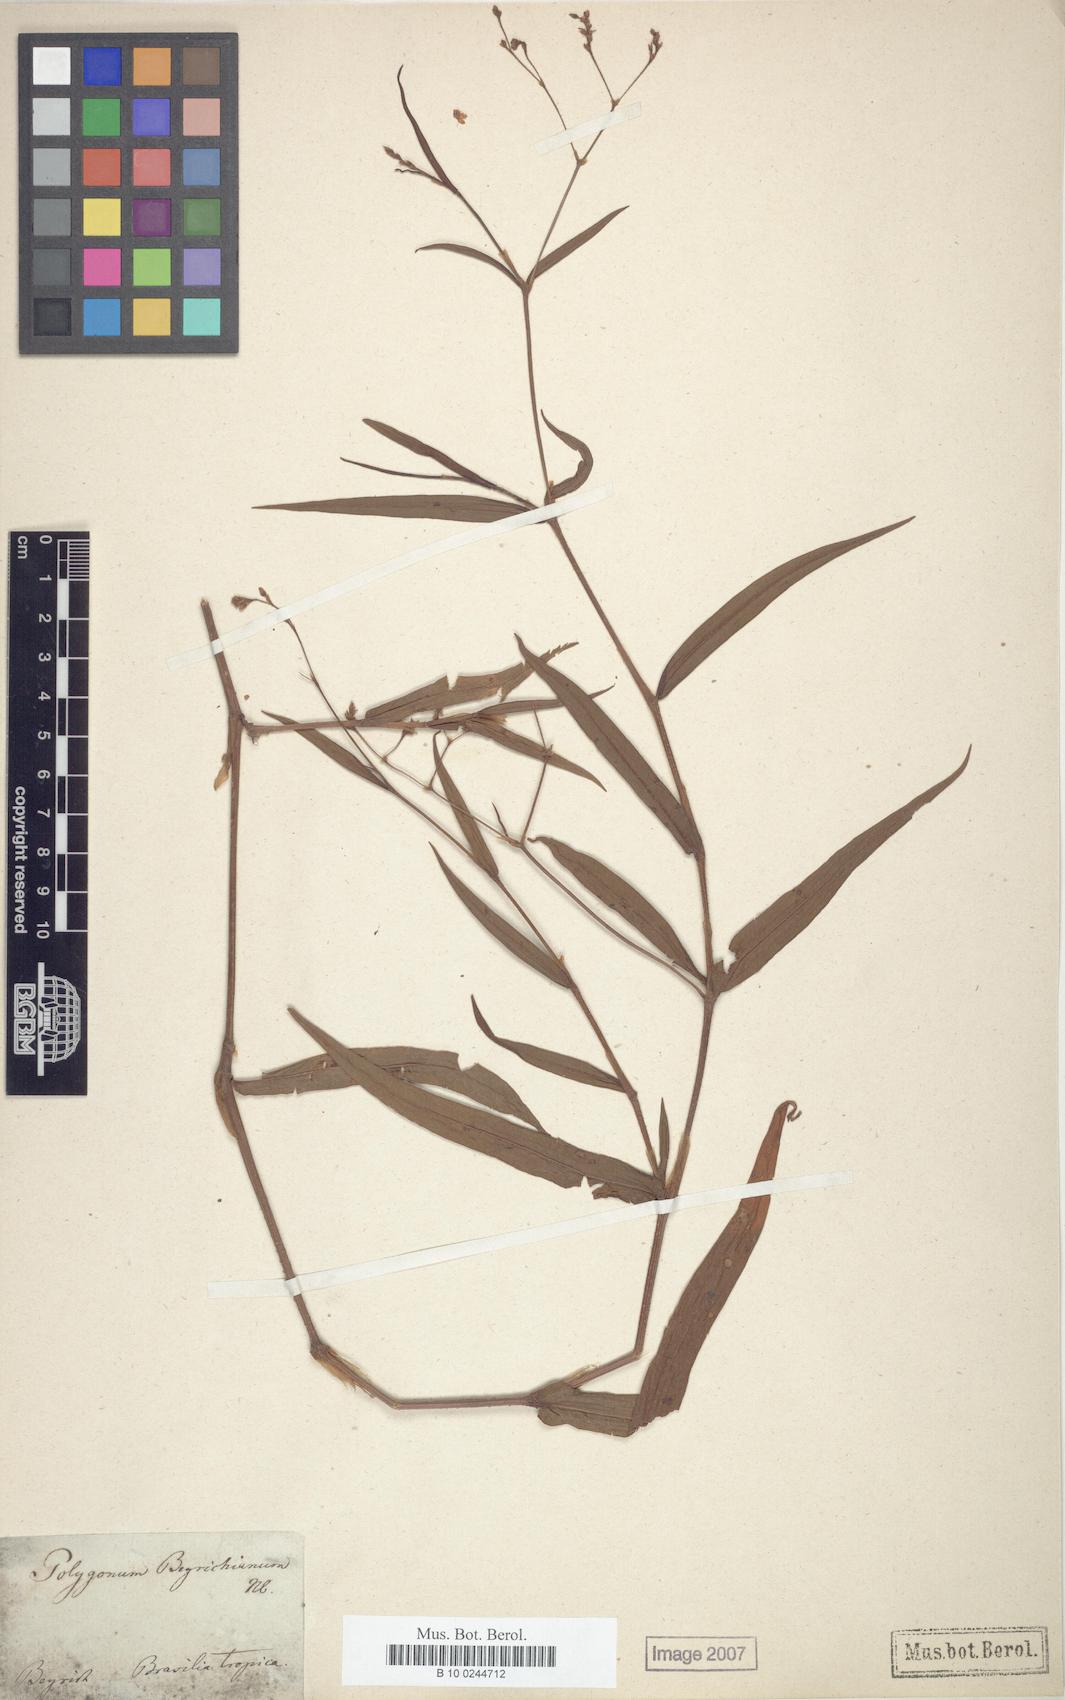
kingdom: Plantae
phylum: Tracheophyta
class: Magnoliopsida
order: Caryophyllales
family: Polygonaceae
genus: Persicaria
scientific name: Persicaria meisneriana
